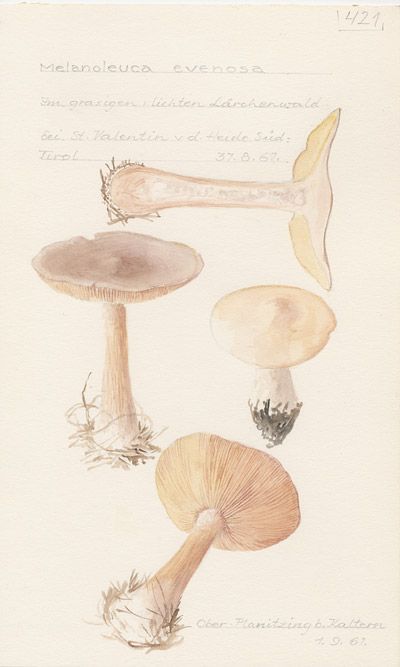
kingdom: Fungi
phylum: Basidiomycota
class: Agaricomycetes
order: Agaricales
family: Tricholomataceae
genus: Tricholoma
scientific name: Tricholoma evenosum
